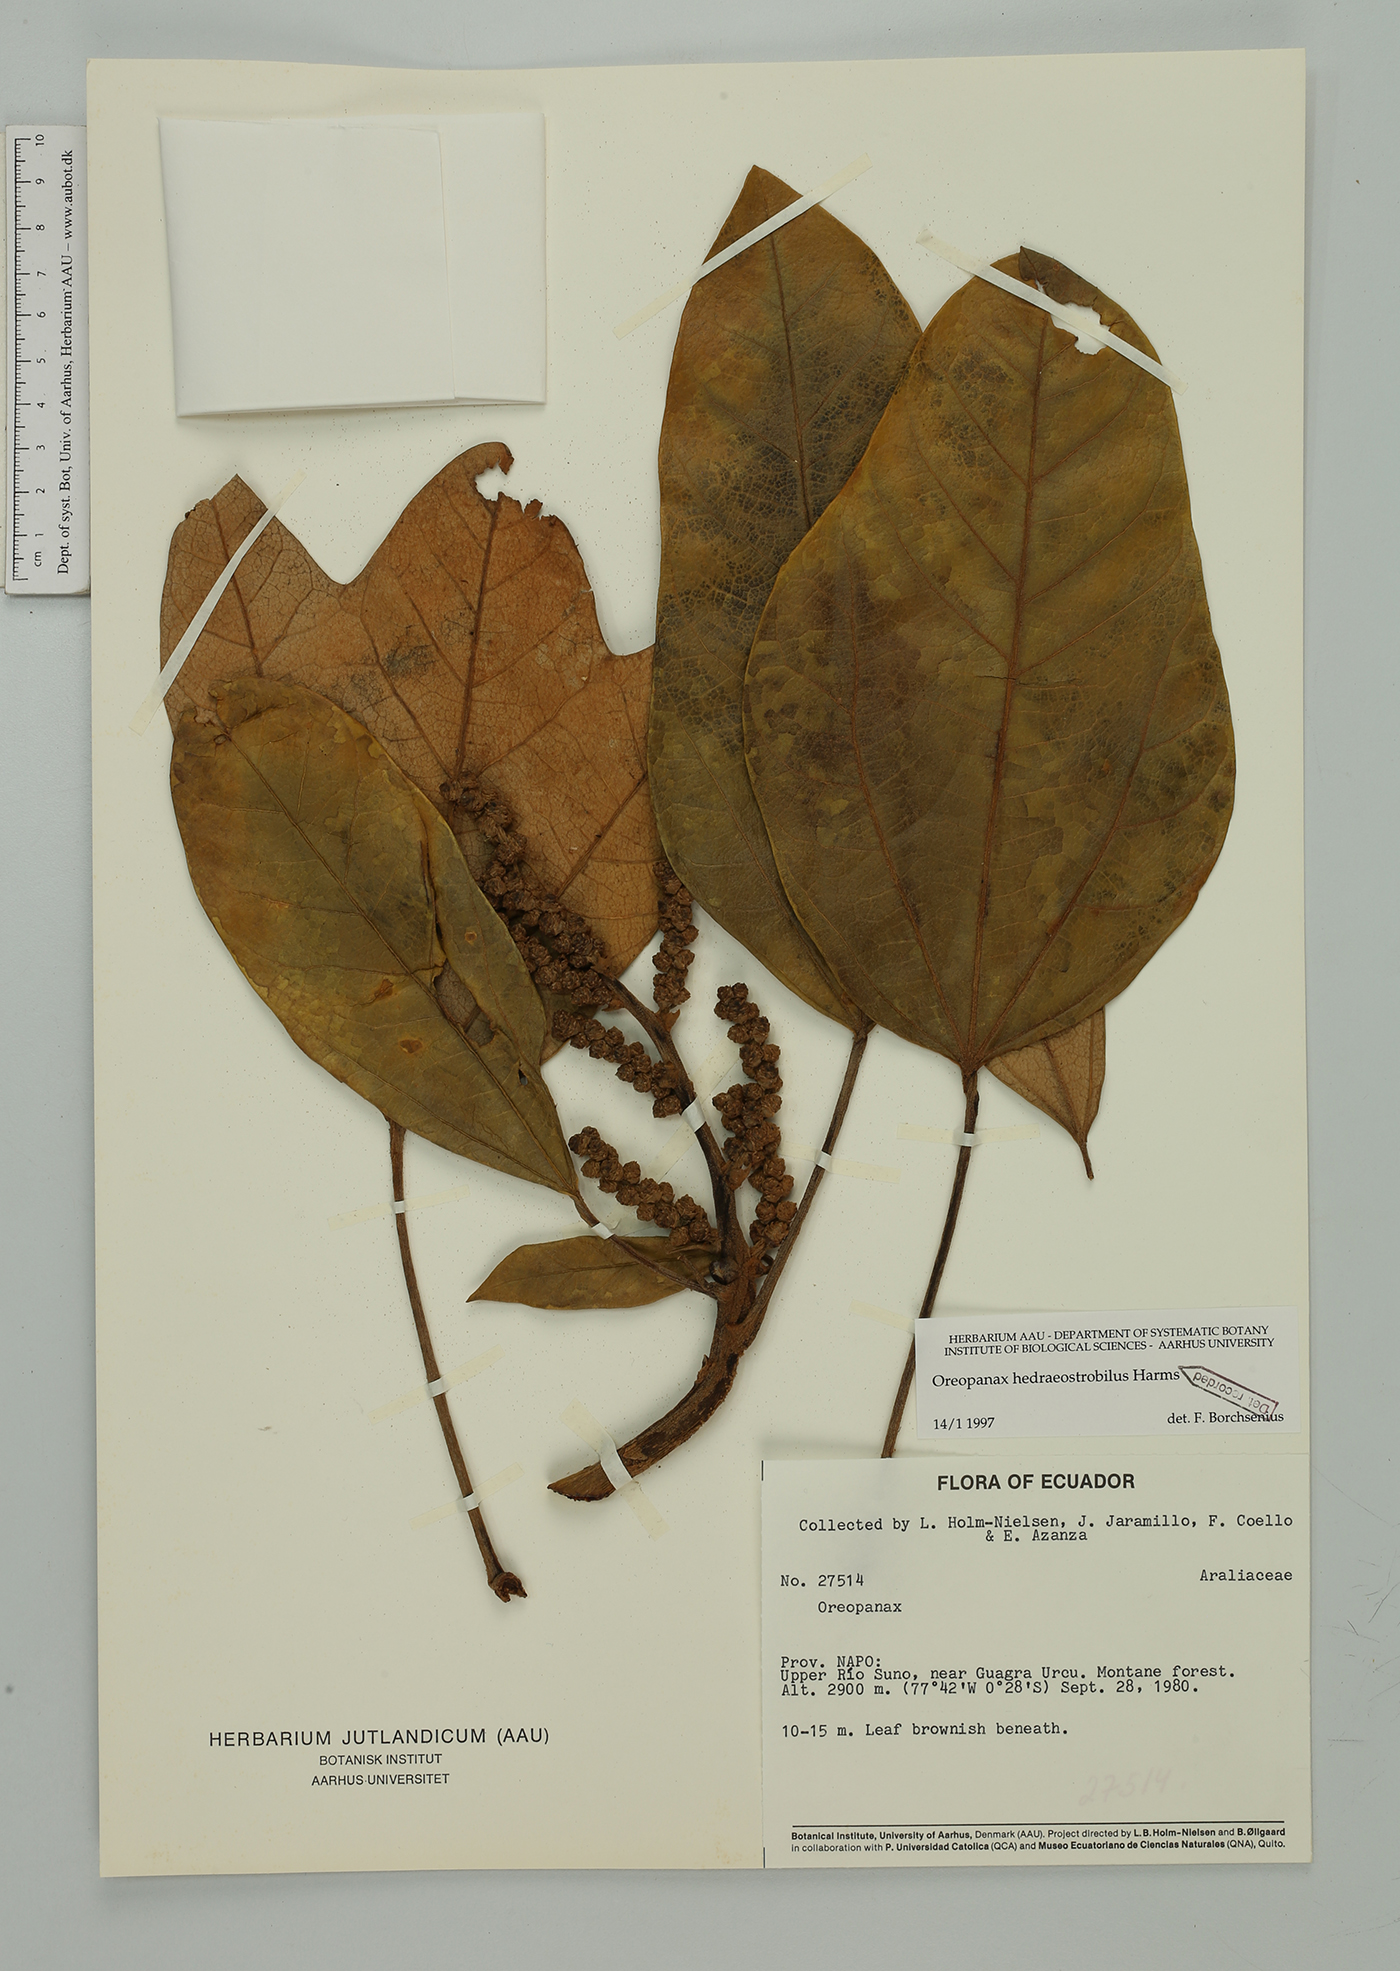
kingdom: Plantae
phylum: Tracheophyta
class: Magnoliopsida
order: Apiales
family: Araliaceae
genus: Oreopanax
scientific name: Oreopanax hedraeostrobilus
